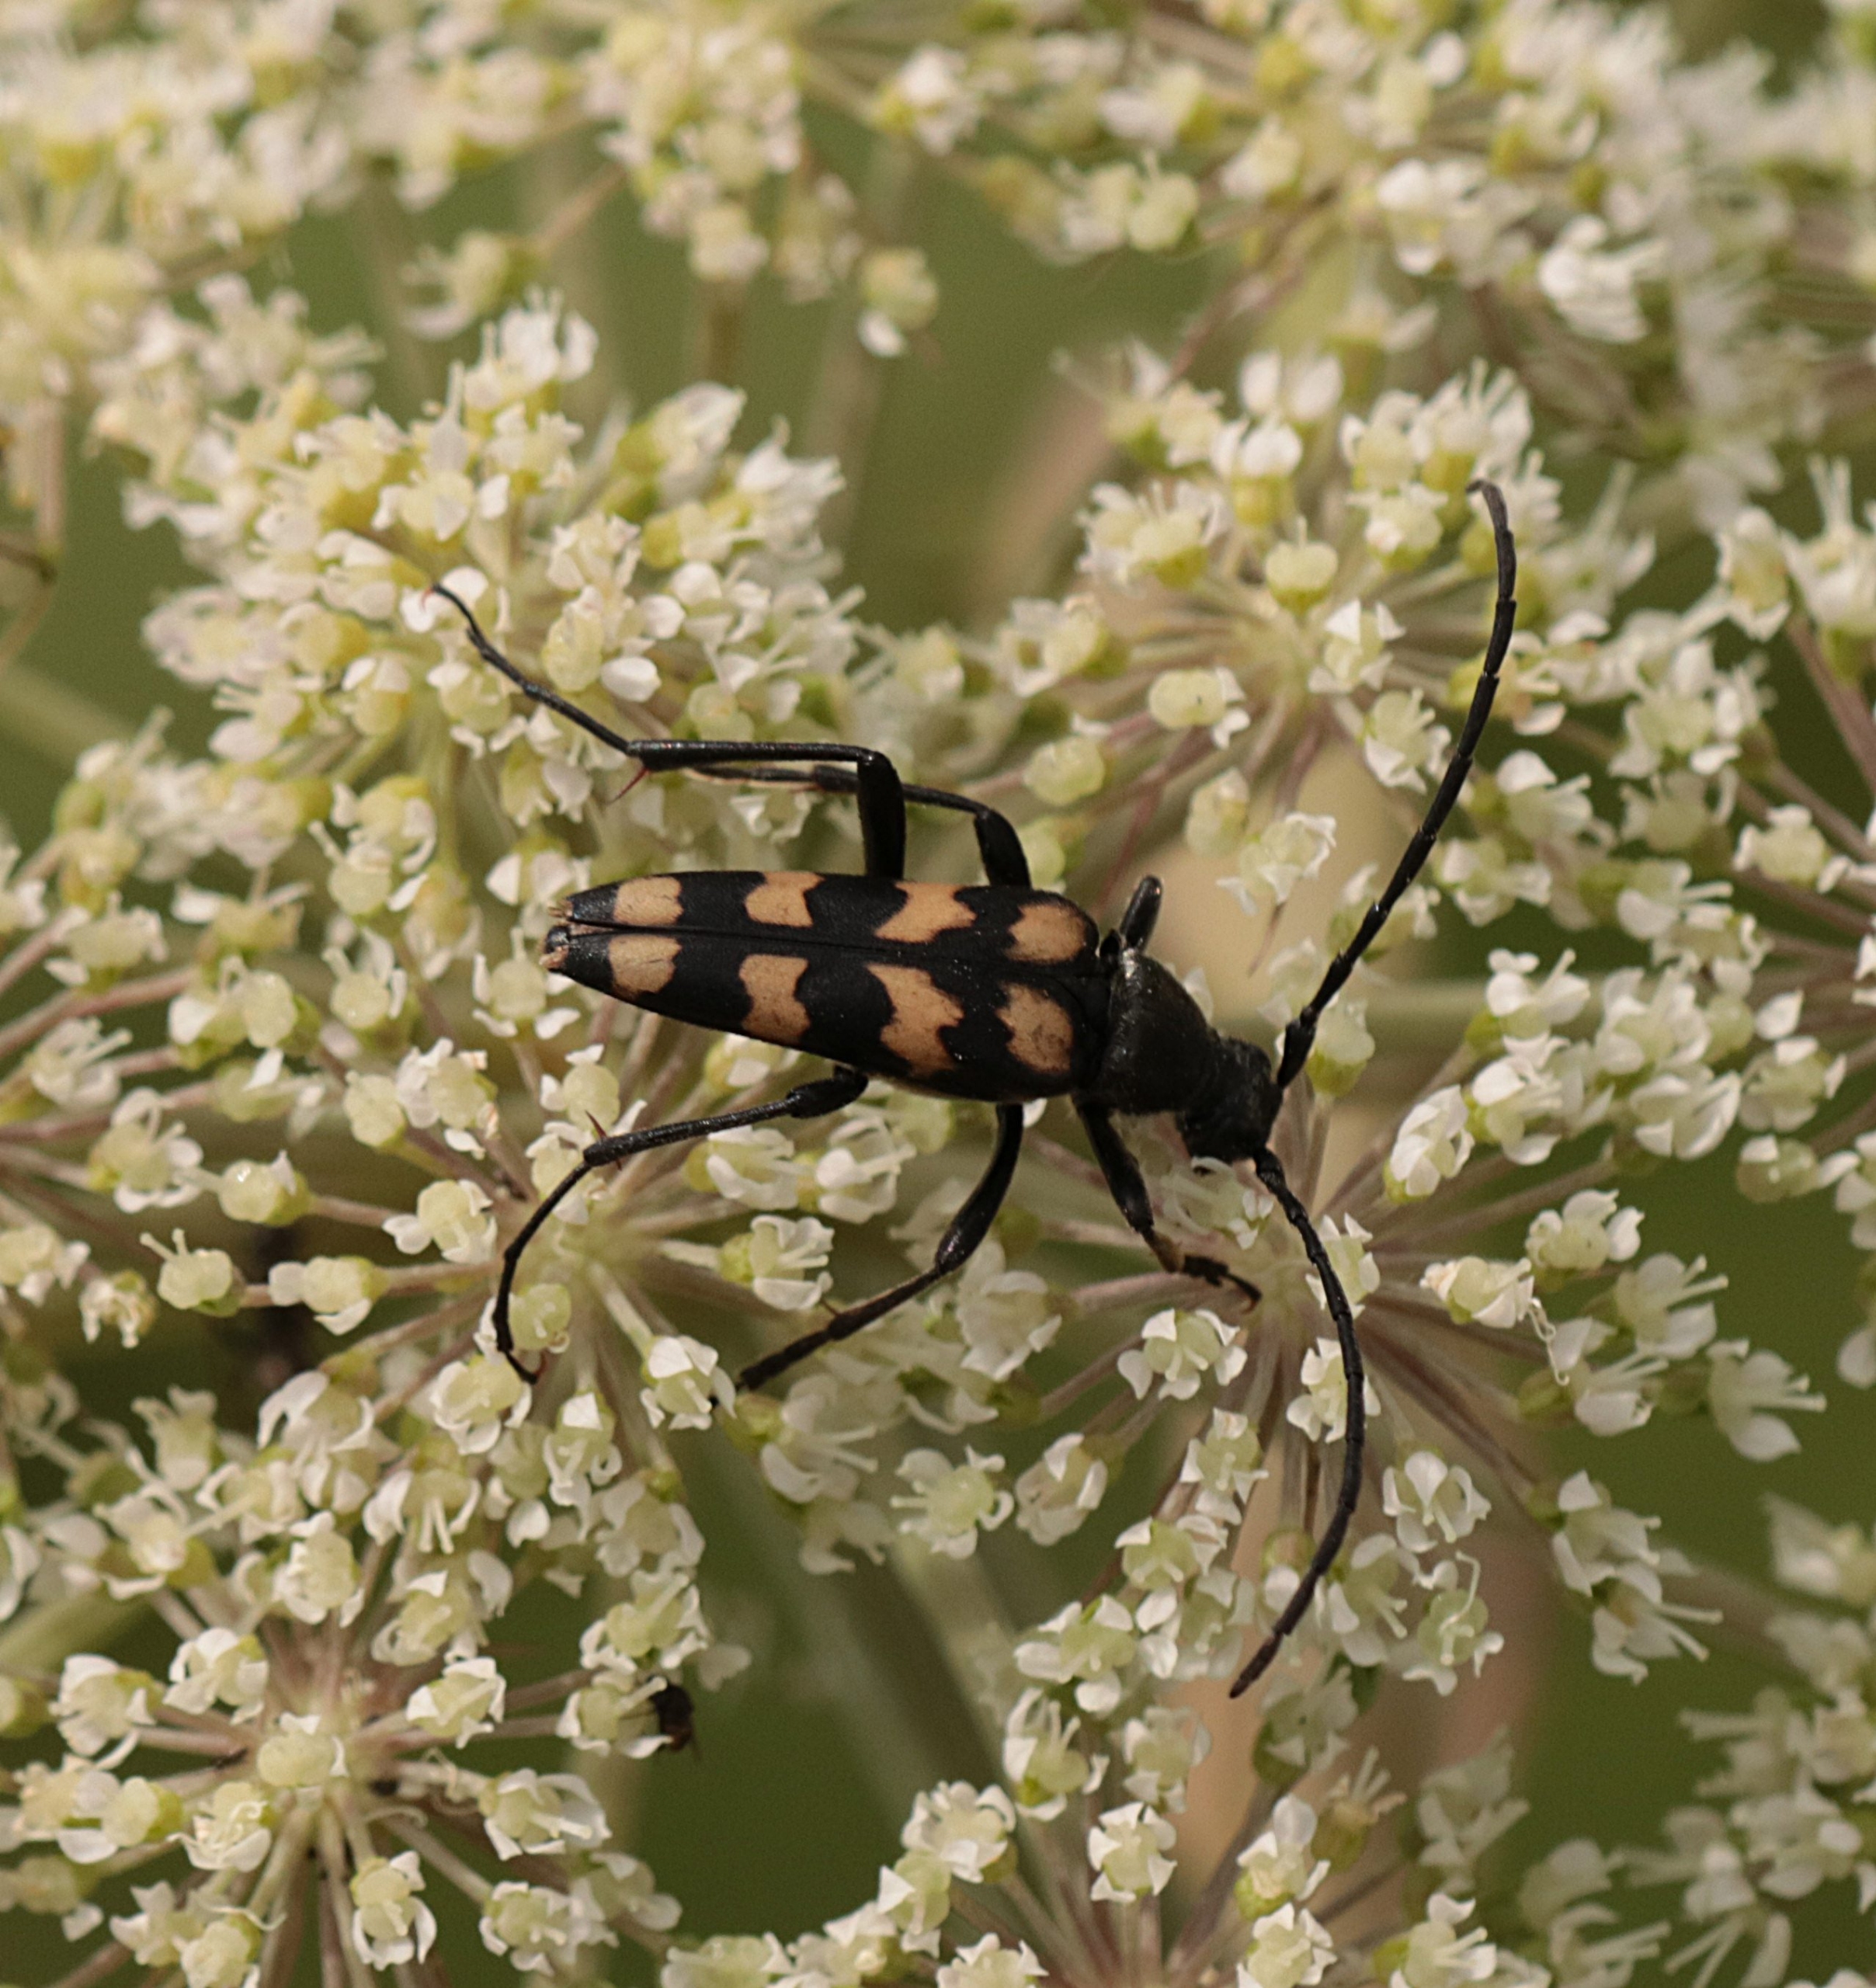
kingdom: Animalia
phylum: Arthropoda
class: Insecta
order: Coleoptera
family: Cerambycidae
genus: Leptura
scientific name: Leptura quadrifasciata
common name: Firebåndet blomsterbuk
